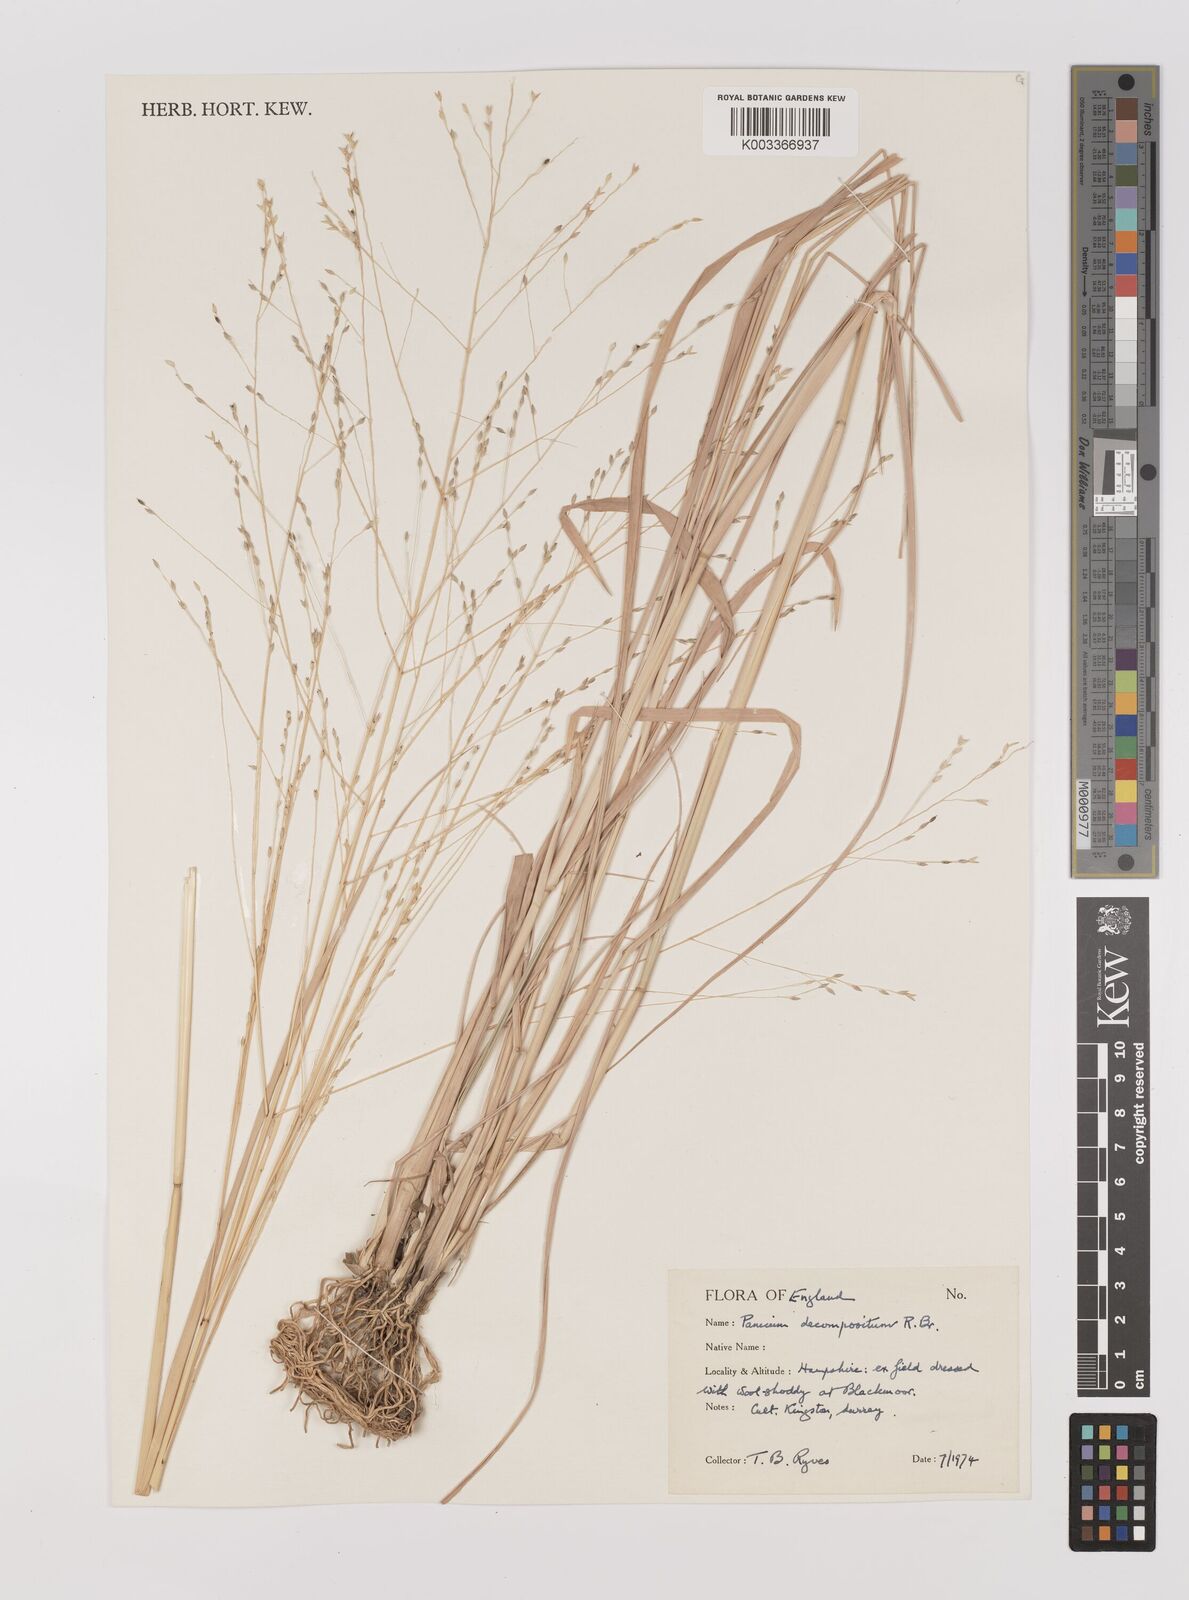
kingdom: Plantae
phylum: Tracheophyta
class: Liliopsida
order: Poales
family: Poaceae
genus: Panicum
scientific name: Panicum decompositum
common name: Australian millet
